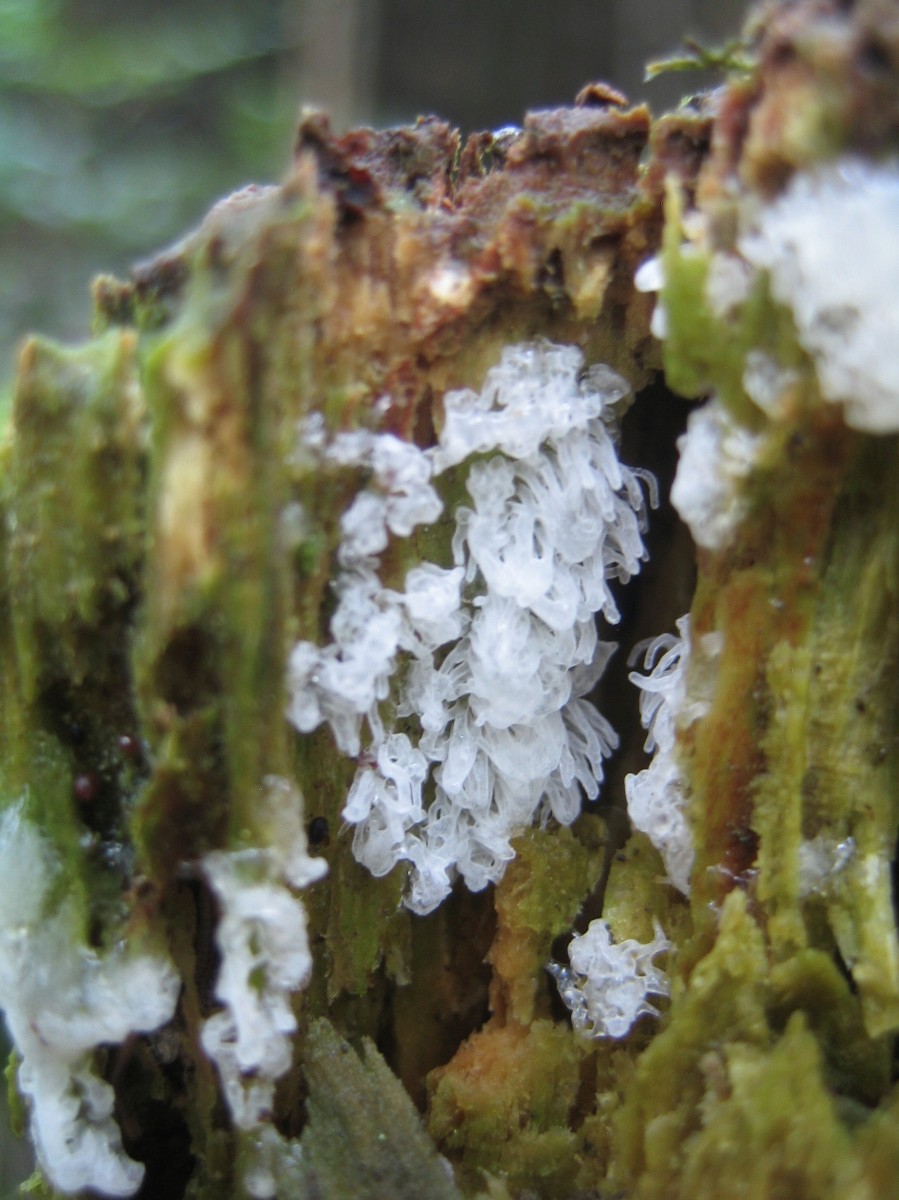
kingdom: Protozoa
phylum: Mycetozoa
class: Protosteliomycetes
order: Ceratiomyxales
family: Ceratiomyxaceae
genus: Ceratiomyxa
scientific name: Ceratiomyxa fruticulosa
